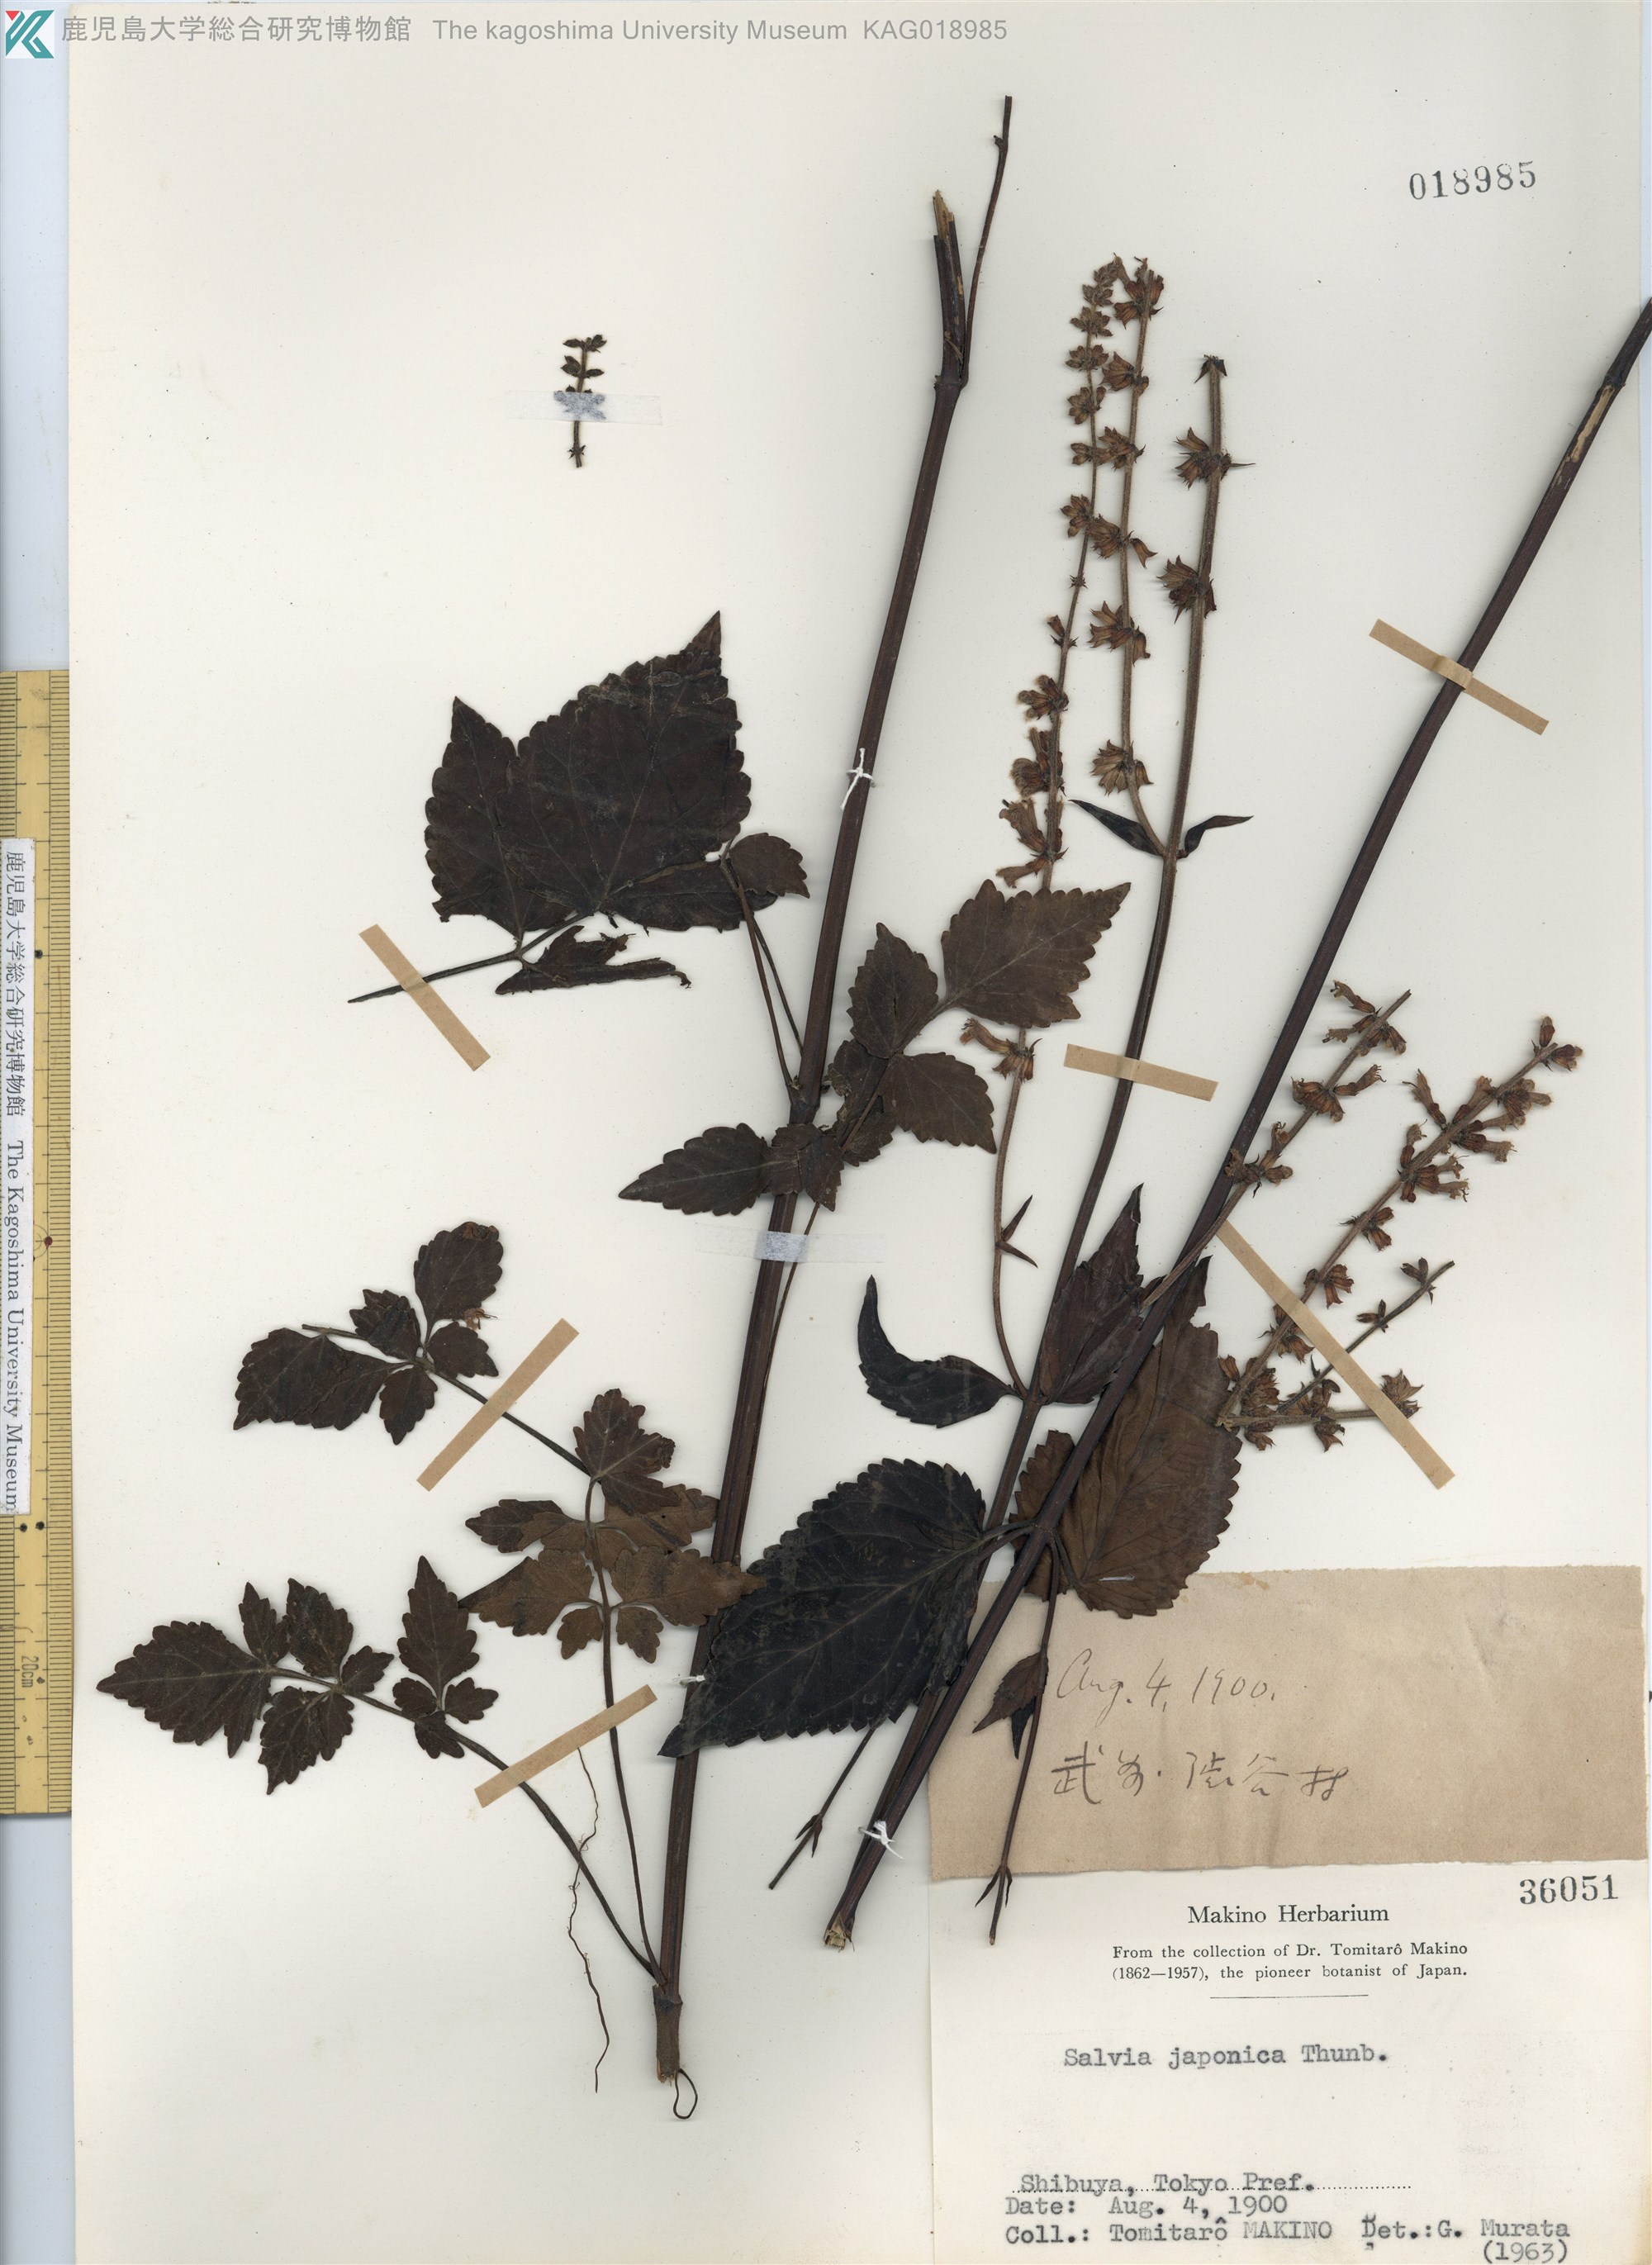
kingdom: Plantae
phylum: Tracheophyta
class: Magnoliopsida
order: Lamiales
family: Lamiaceae
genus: Salvia
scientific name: Salvia japonica
